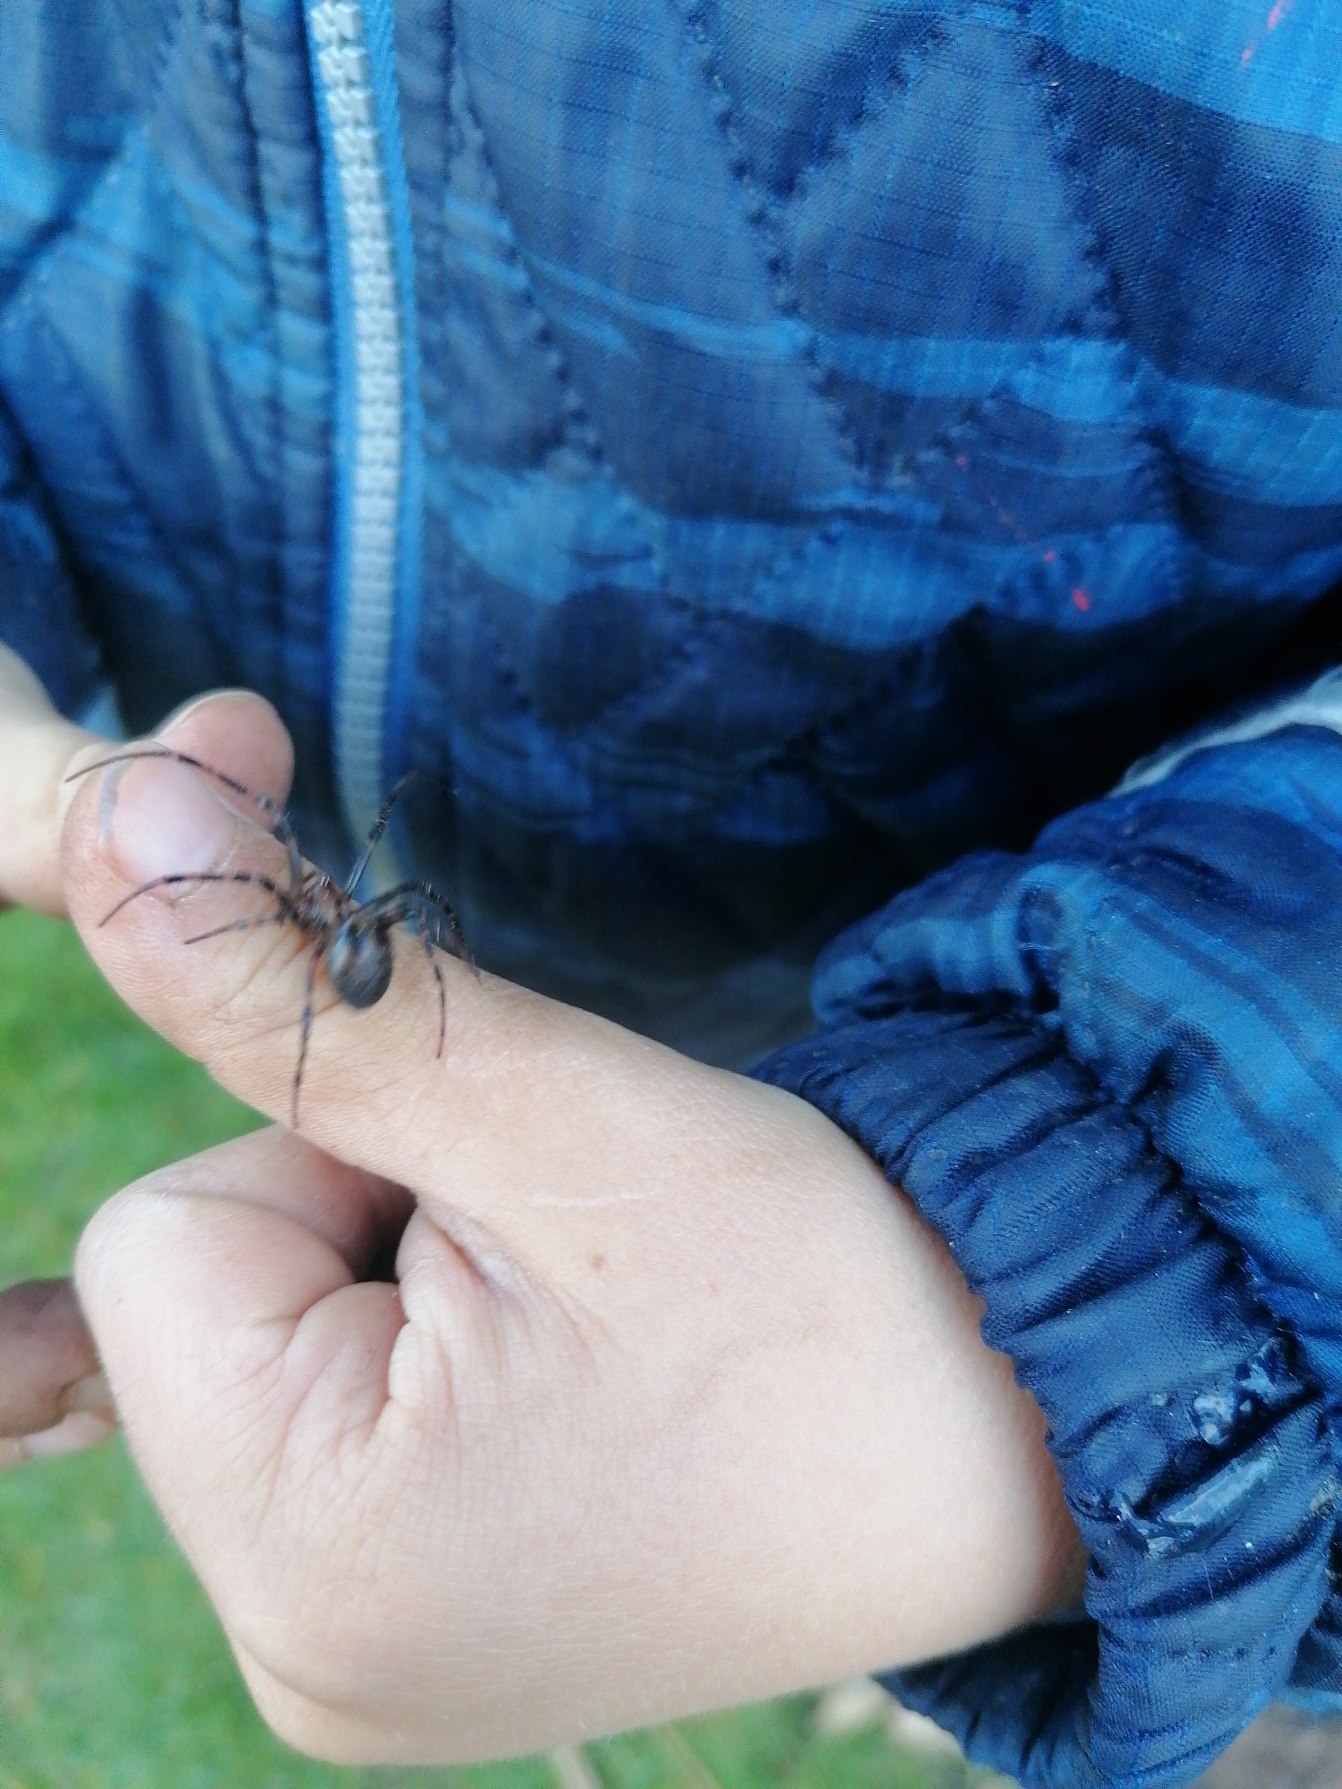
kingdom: Animalia
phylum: Arthropoda
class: Arachnida
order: Araneae
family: Tetragnathidae
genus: Meta
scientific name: Meta menardi
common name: Grotteedderkop
